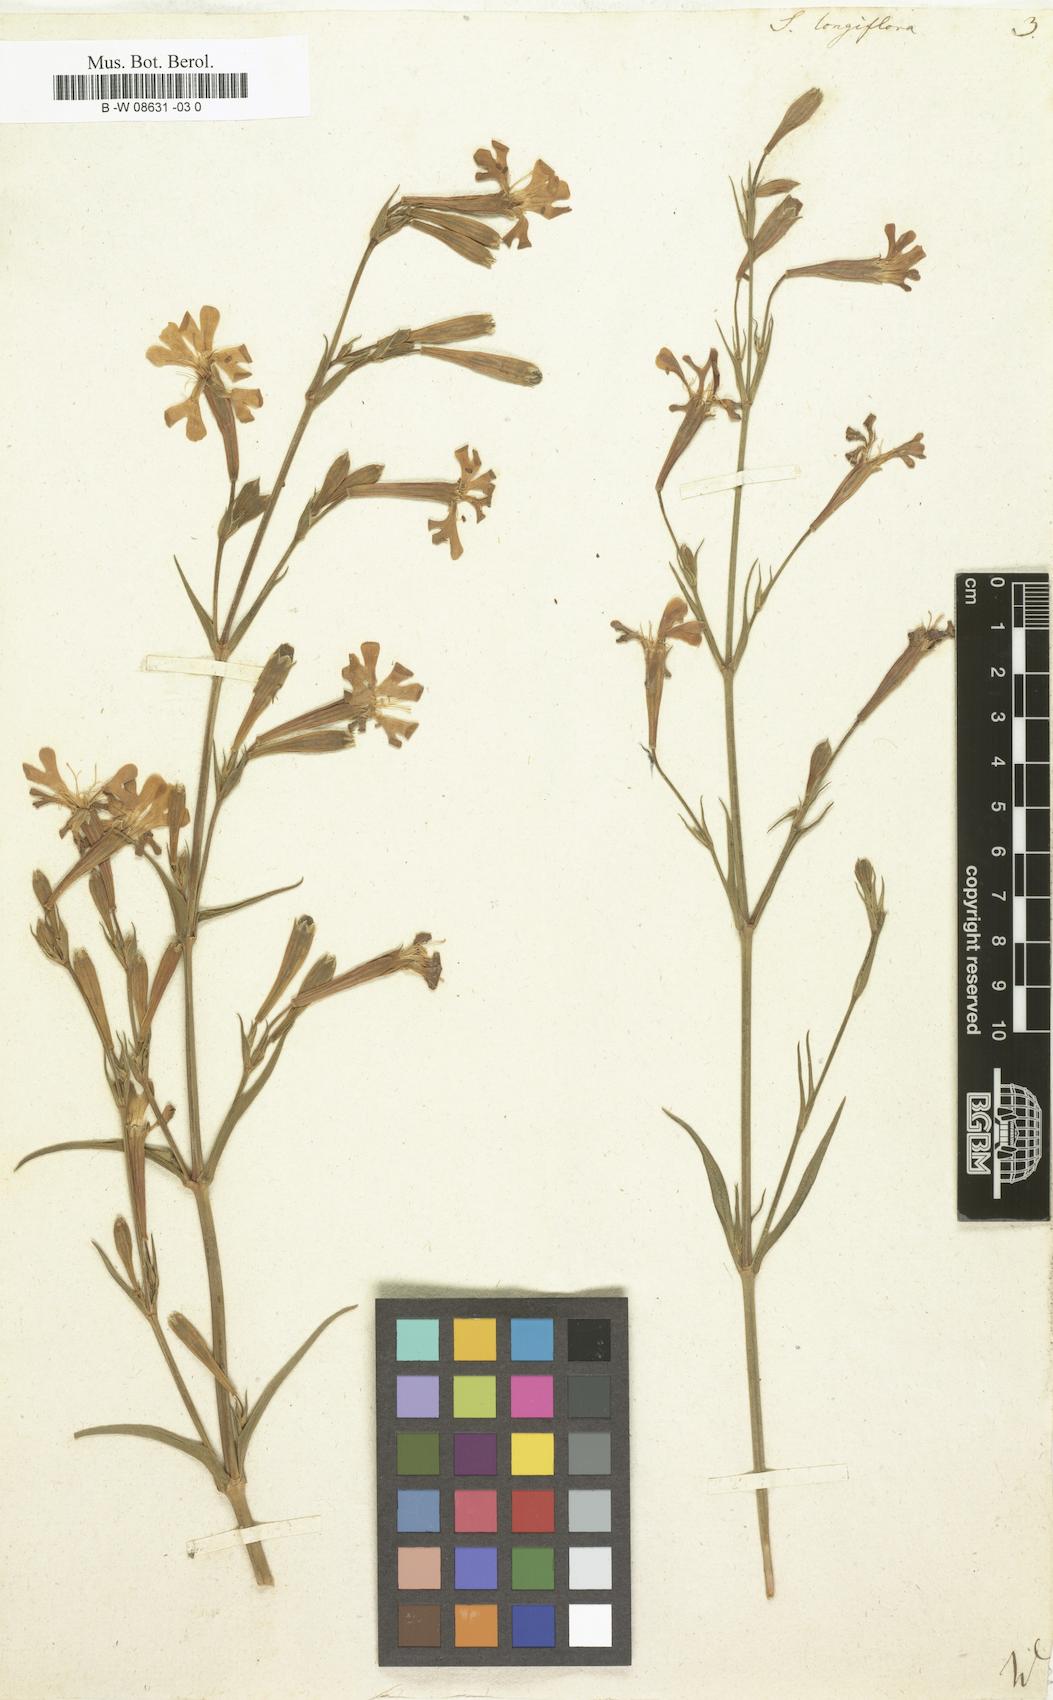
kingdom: Plantae
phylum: Tracheophyta
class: Magnoliopsida
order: Caryophyllales
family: Caryophyllaceae
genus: Silene
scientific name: Silene
